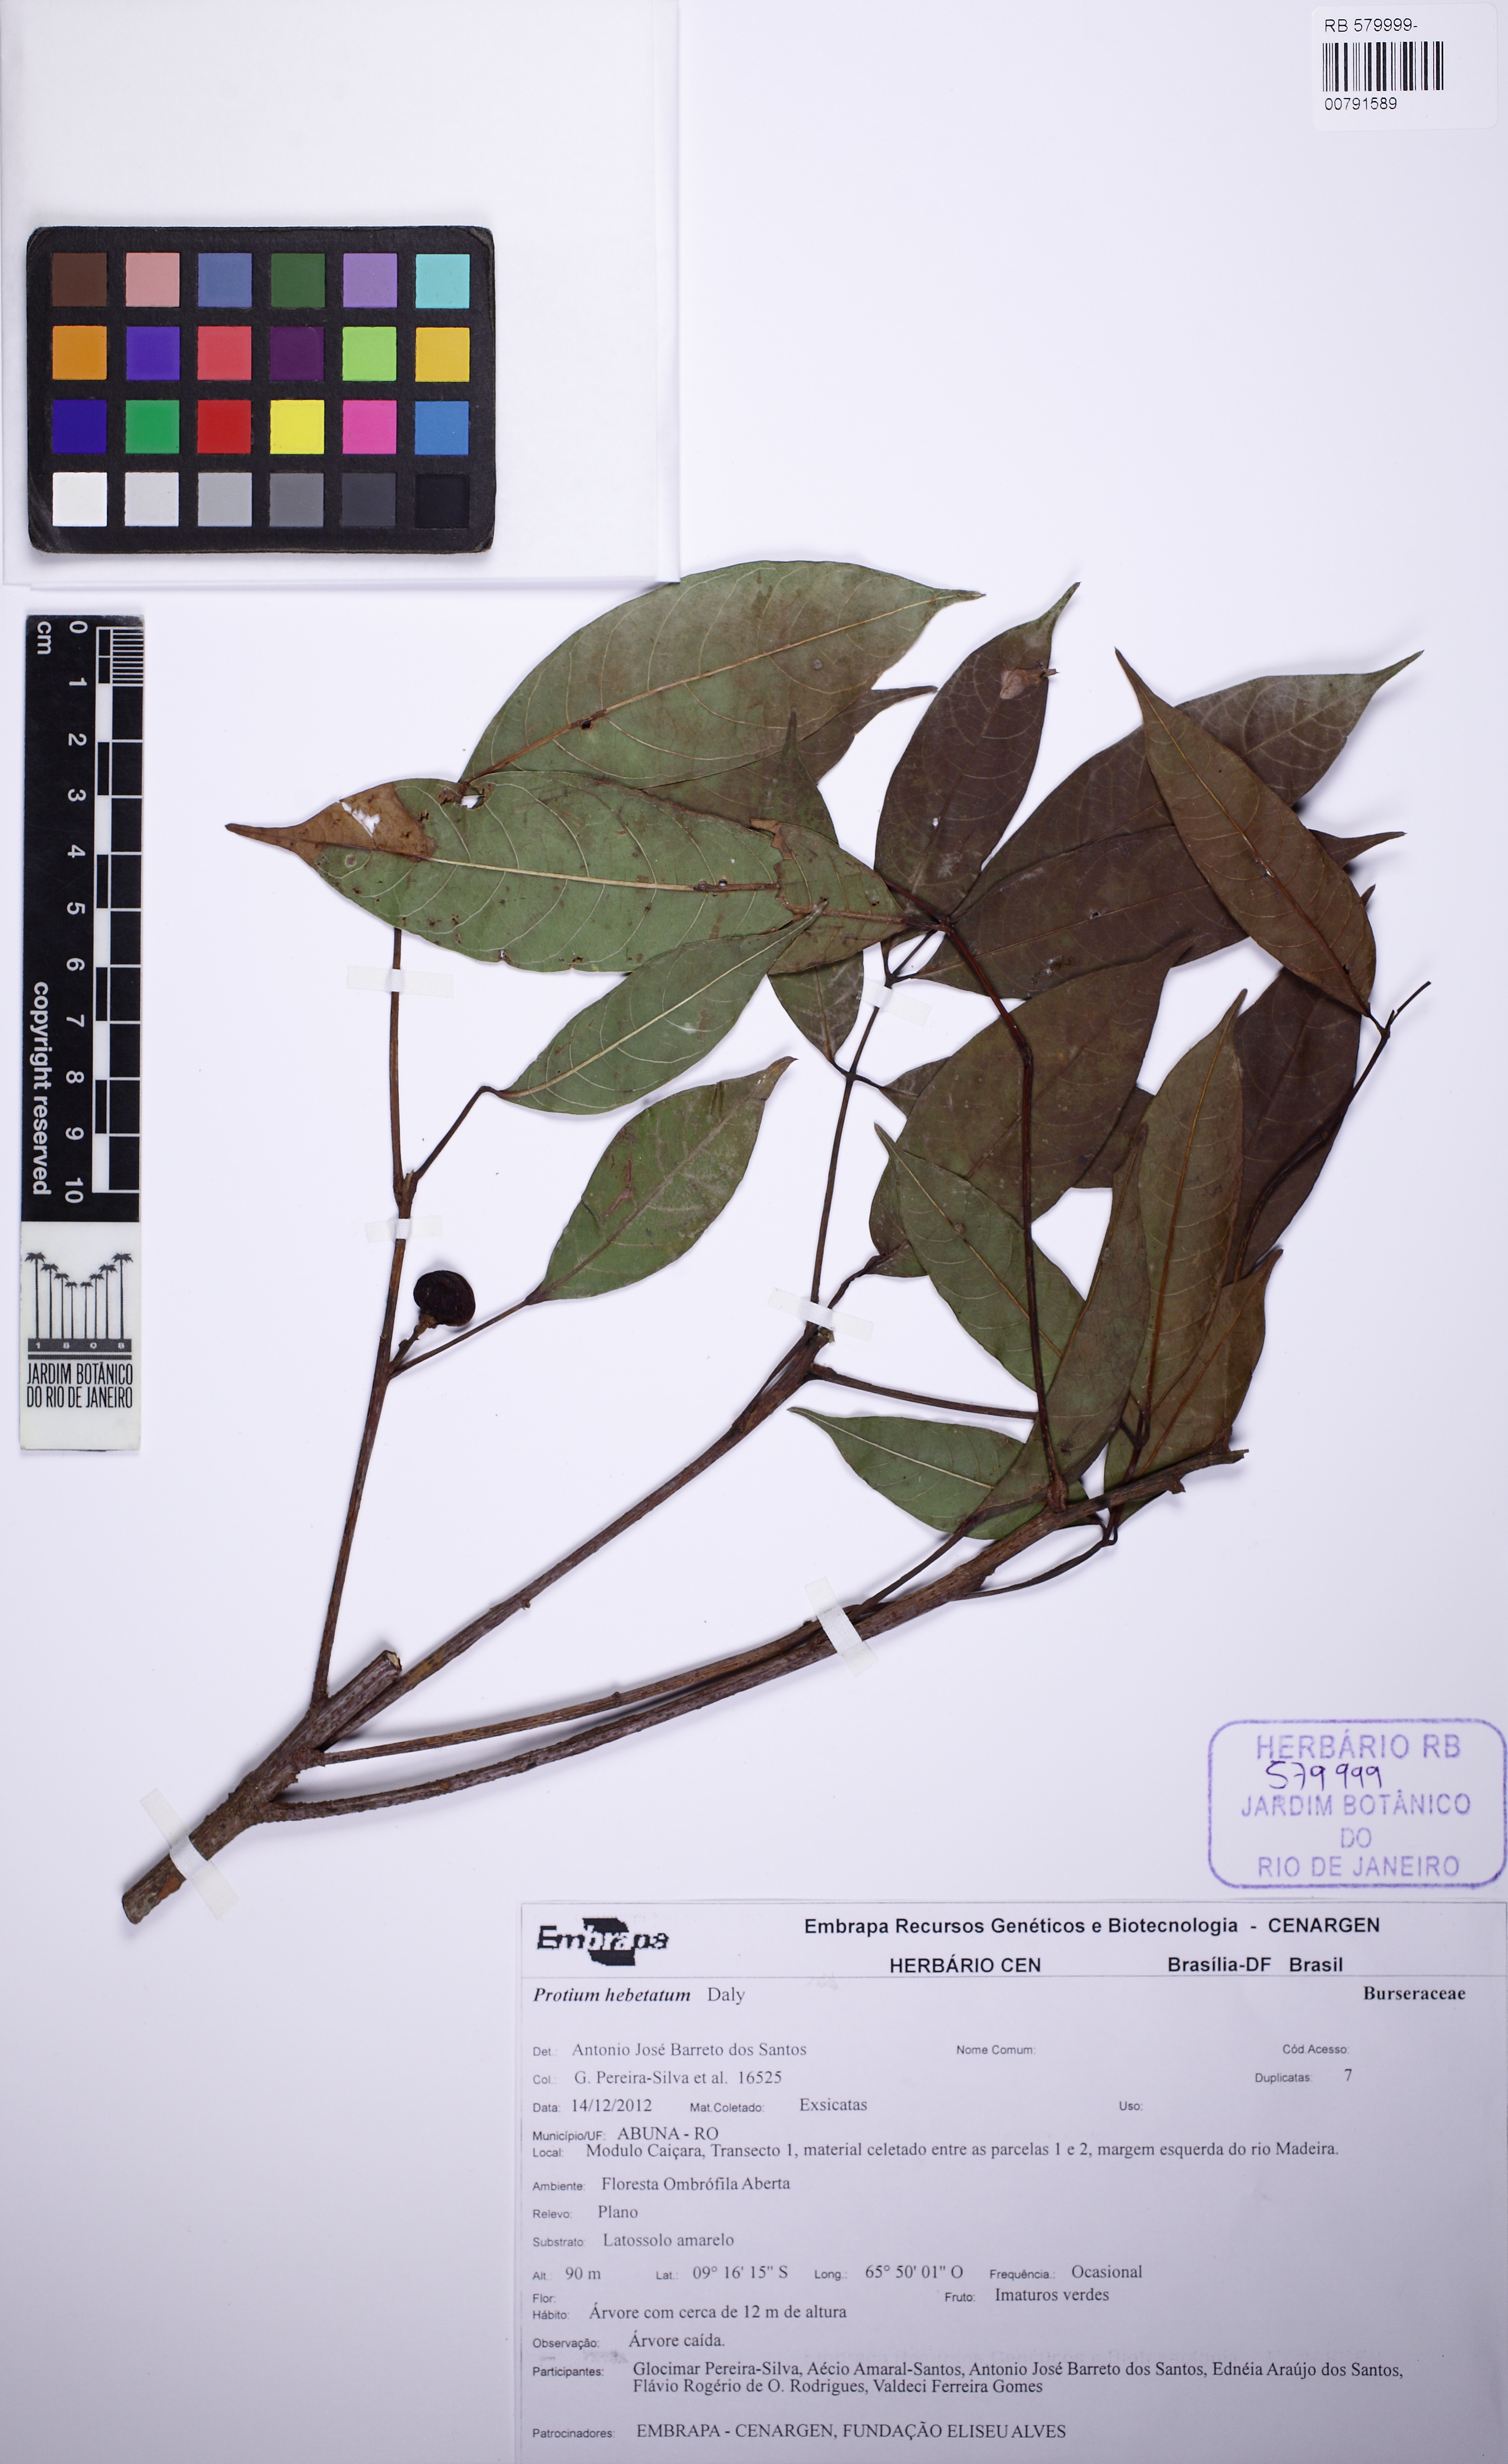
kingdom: Plantae
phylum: Tracheophyta
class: Magnoliopsida
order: Sapindales
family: Burseraceae
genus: Protium
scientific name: Protium hebetatum
